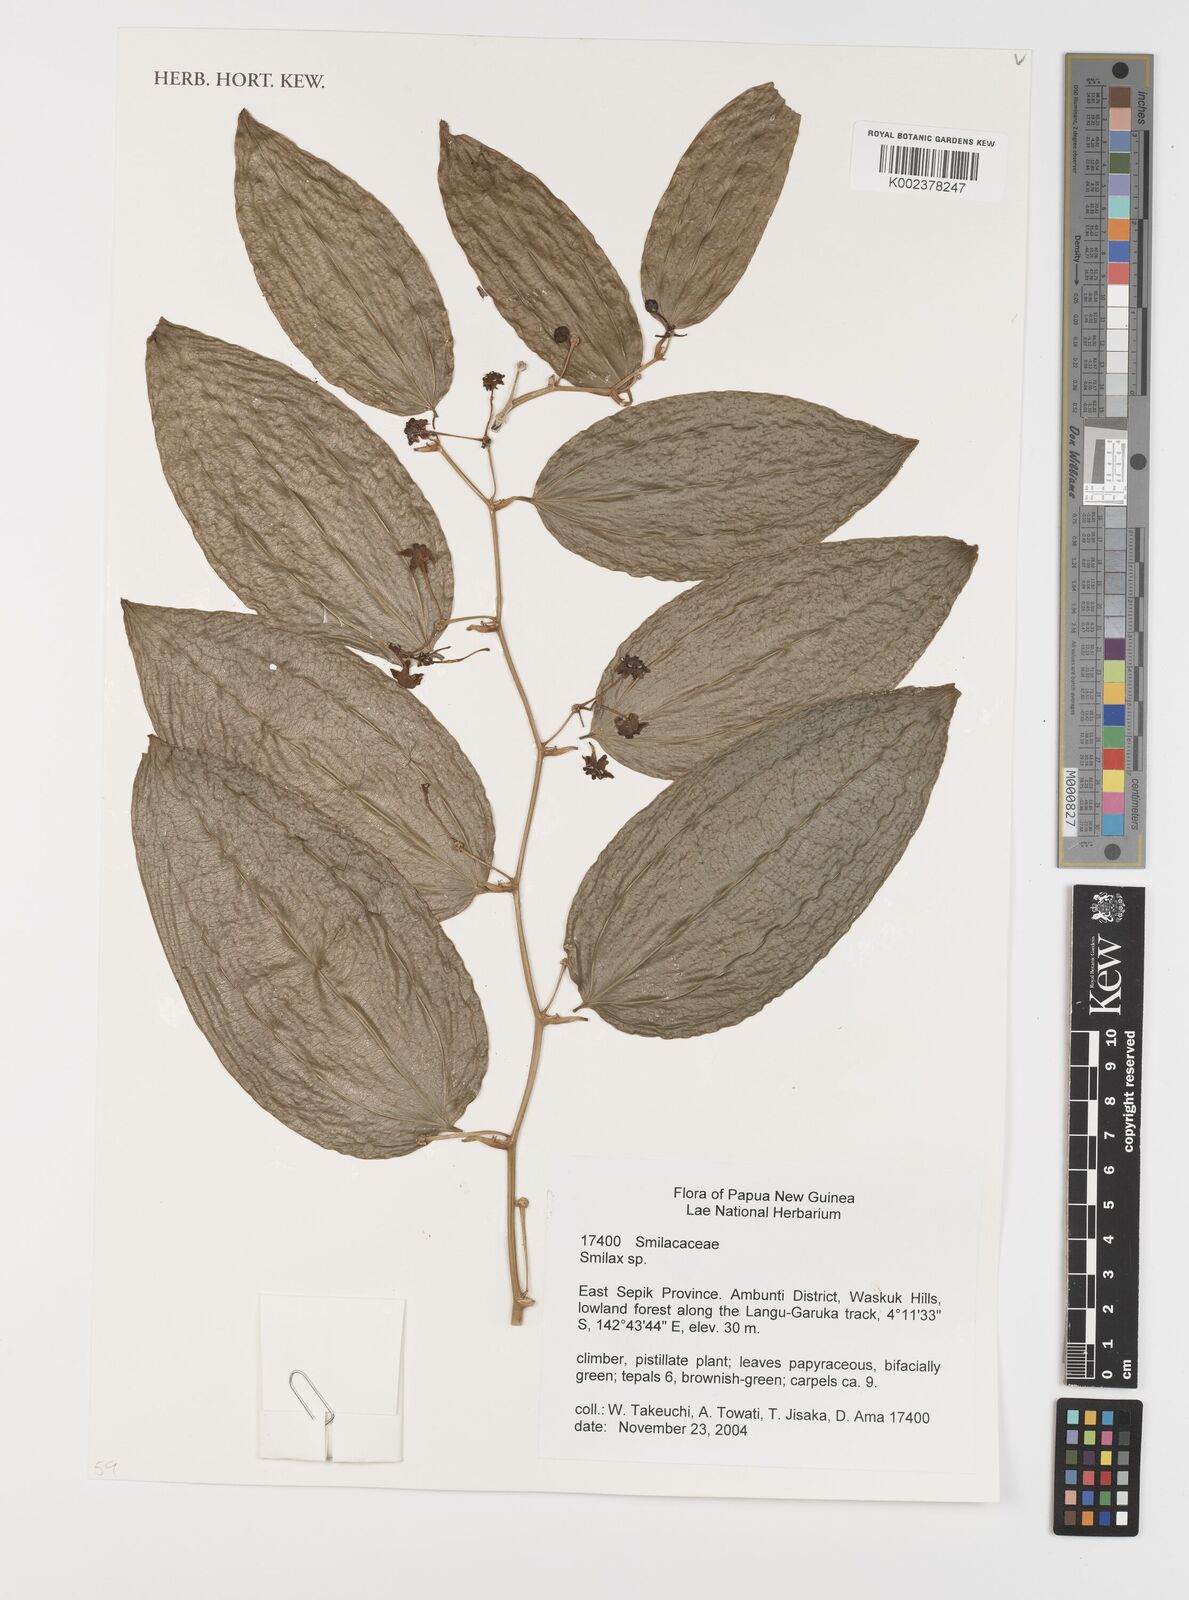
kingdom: Plantae
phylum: Tracheophyta
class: Liliopsida
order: Liliales
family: Smilacaceae
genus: Smilax
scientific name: Smilax
